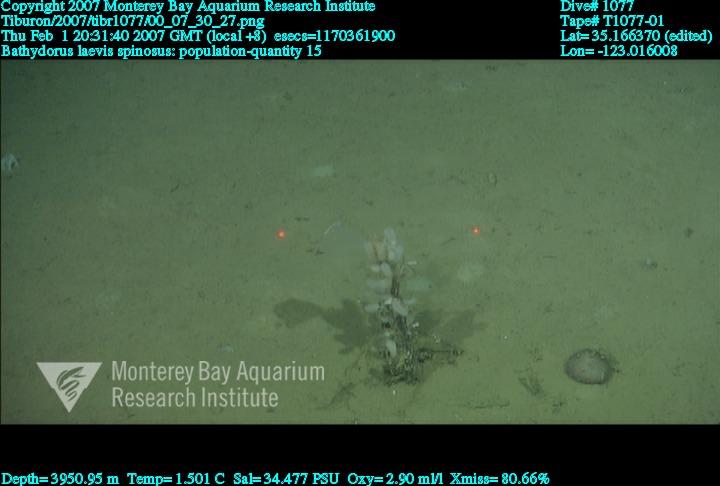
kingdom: Animalia
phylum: Porifera
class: Hexactinellida
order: Lyssacinosida
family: Rossellidae
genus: Bathydorus
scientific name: Bathydorus spinosus
